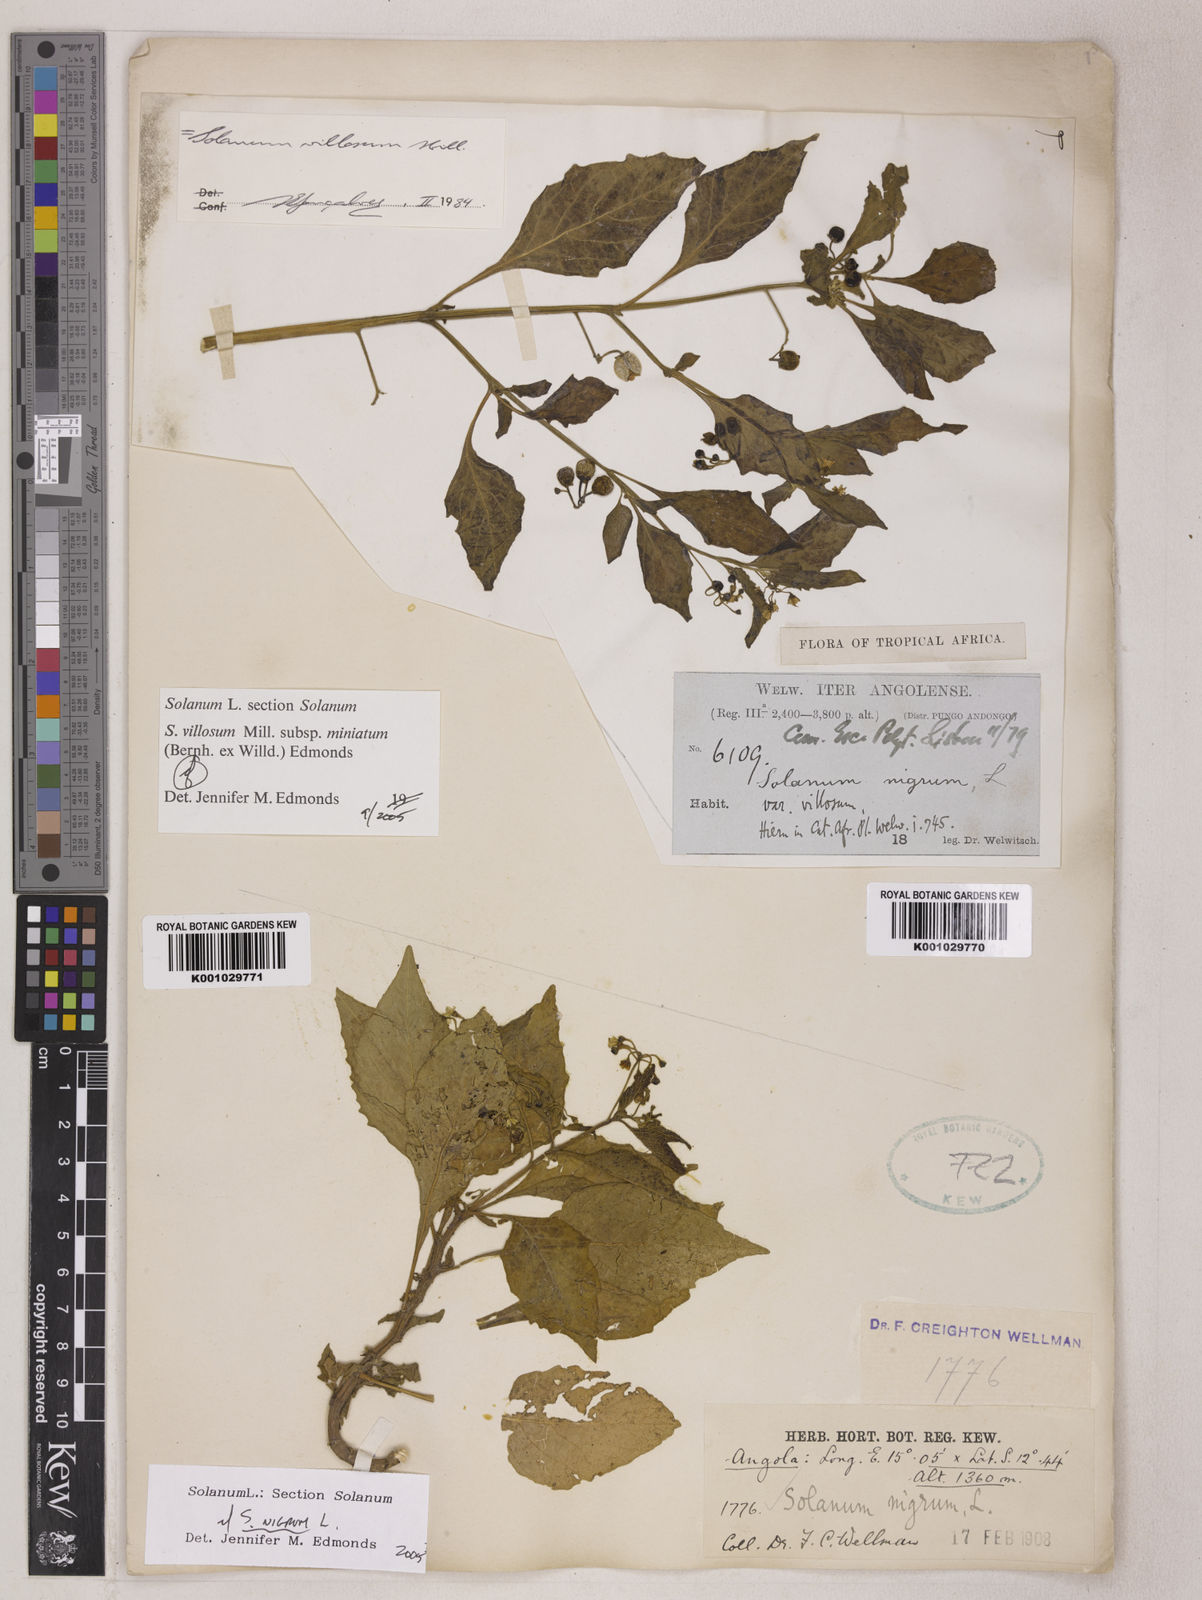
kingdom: Plantae
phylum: Tracheophyta
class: Magnoliopsida
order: Solanales
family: Solanaceae
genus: Solanum
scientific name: Solanum nigrum
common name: Black nightshade
